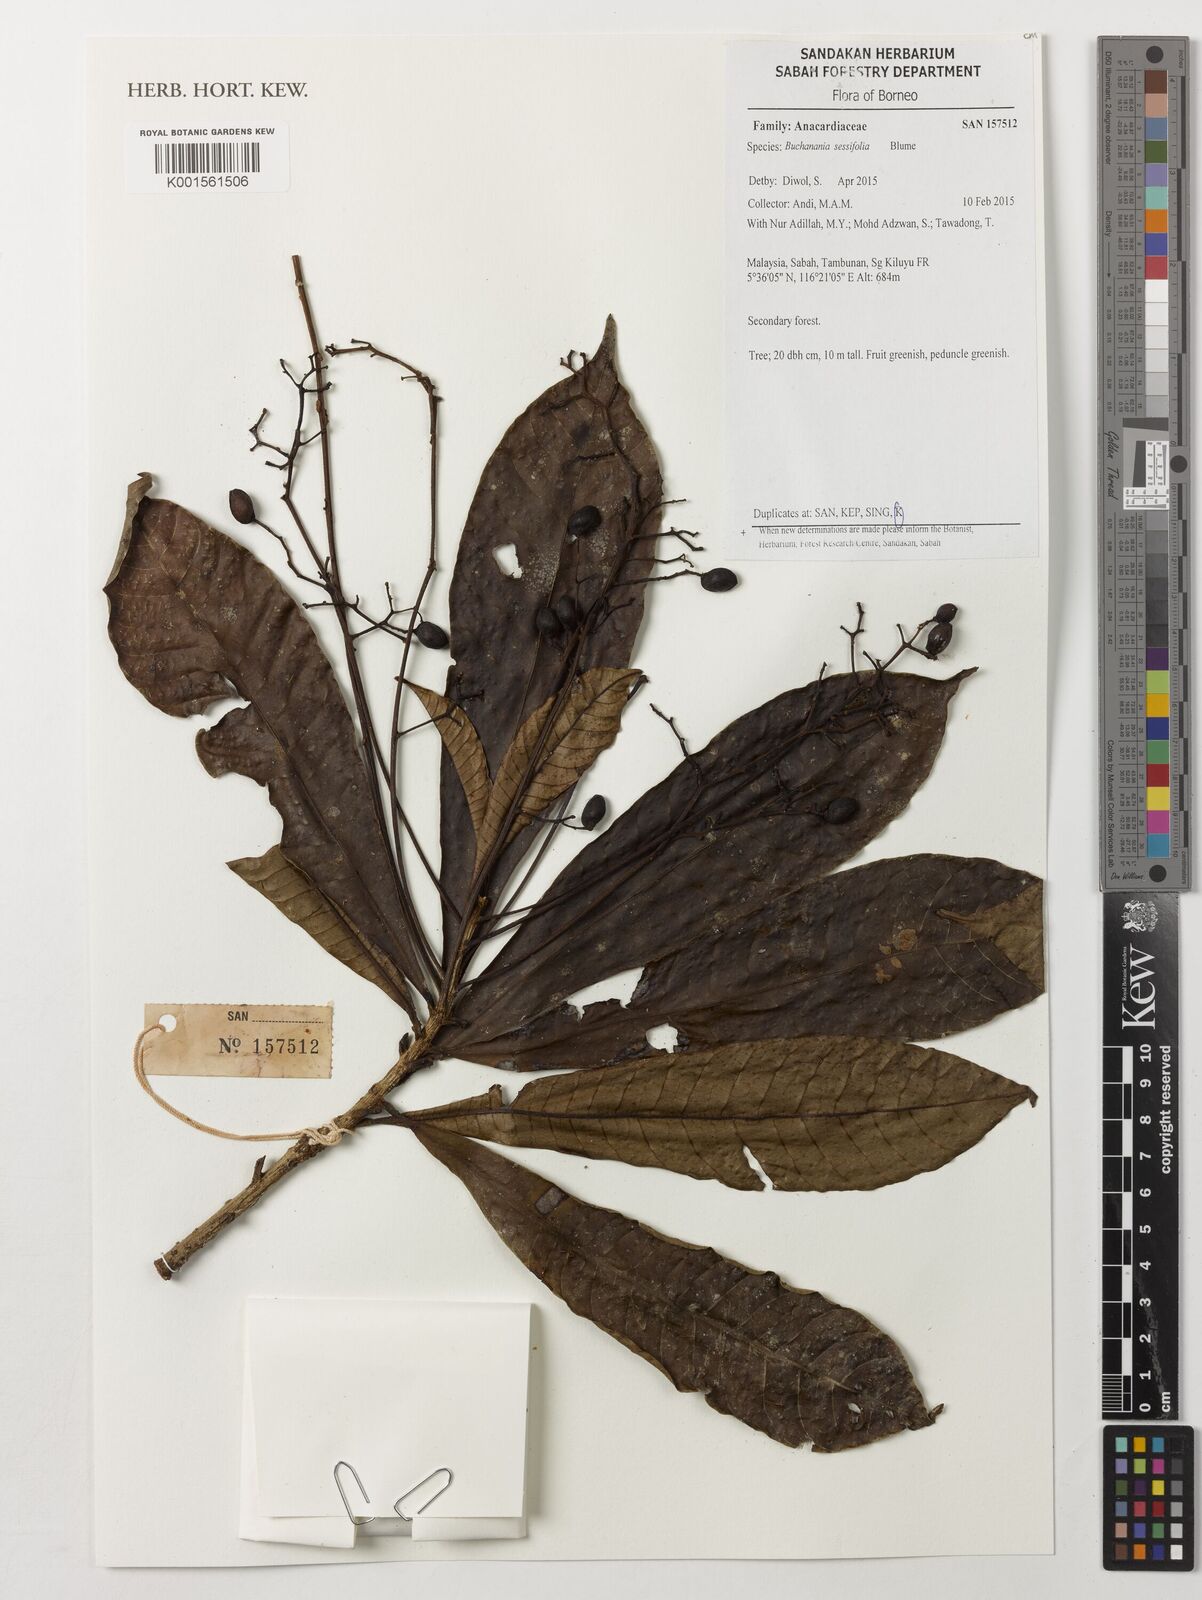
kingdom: Plantae
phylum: Tracheophyta
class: Magnoliopsida
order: Sapindales
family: Anacardiaceae
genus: Buchanania
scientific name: Buchanania sessifolia
